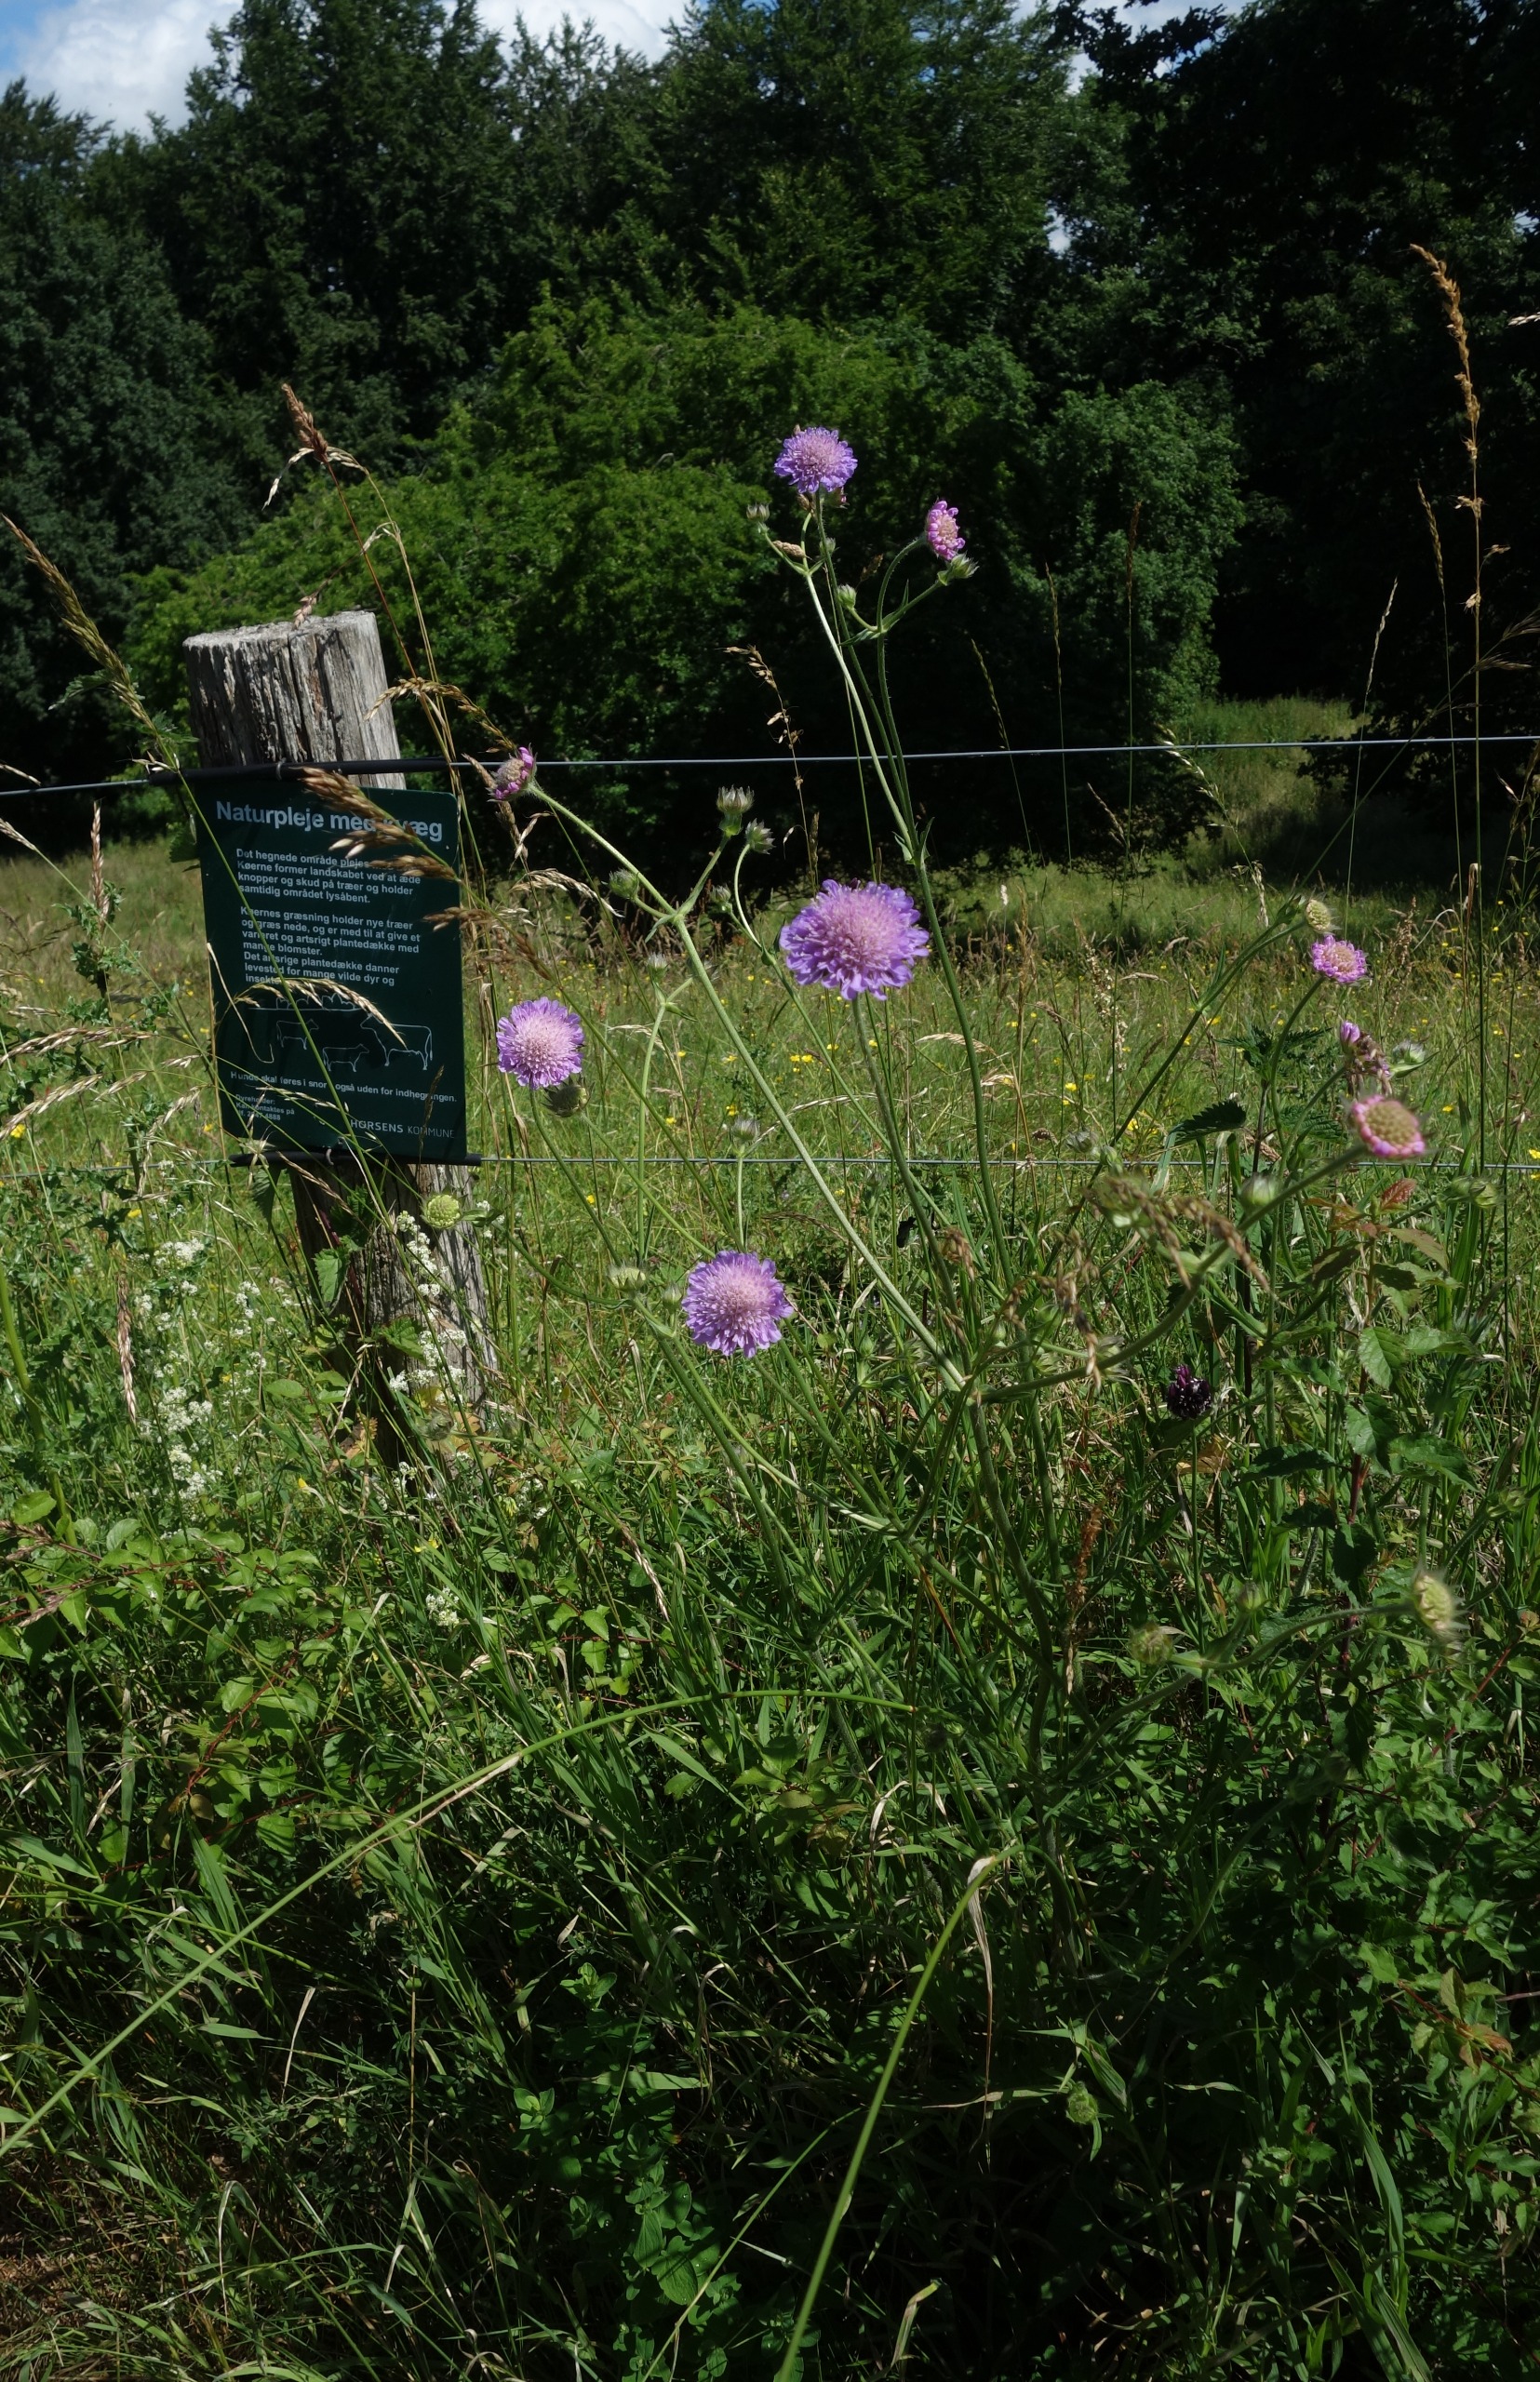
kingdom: Plantae
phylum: Tracheophyta
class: Magnoliopsida
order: Dipsacales
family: Caprifoliaceae
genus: Knautia
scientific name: Knautia arvensis
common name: Blåhat
